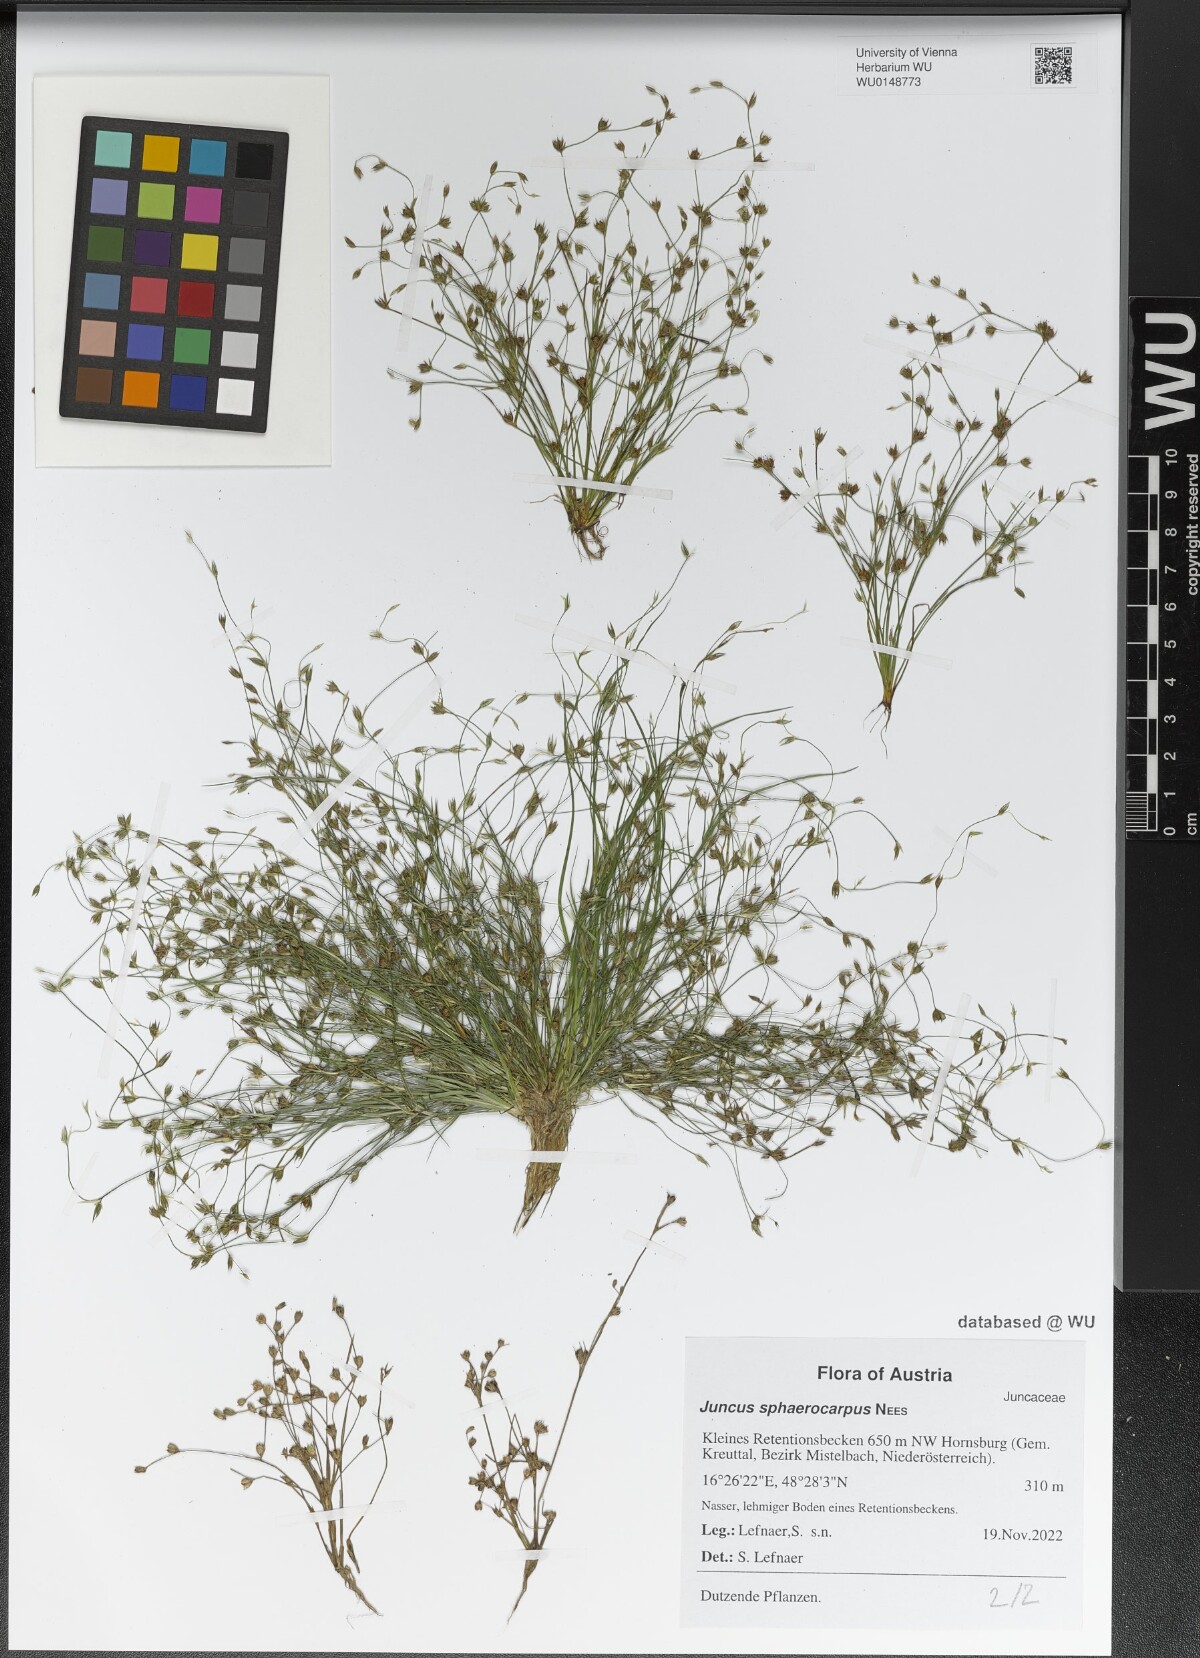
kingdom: Plantae
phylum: Tracheophyta
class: Liliopsida
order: Poales
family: Juncaceae
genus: Juncus
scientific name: Juncus sphaerocarpus
